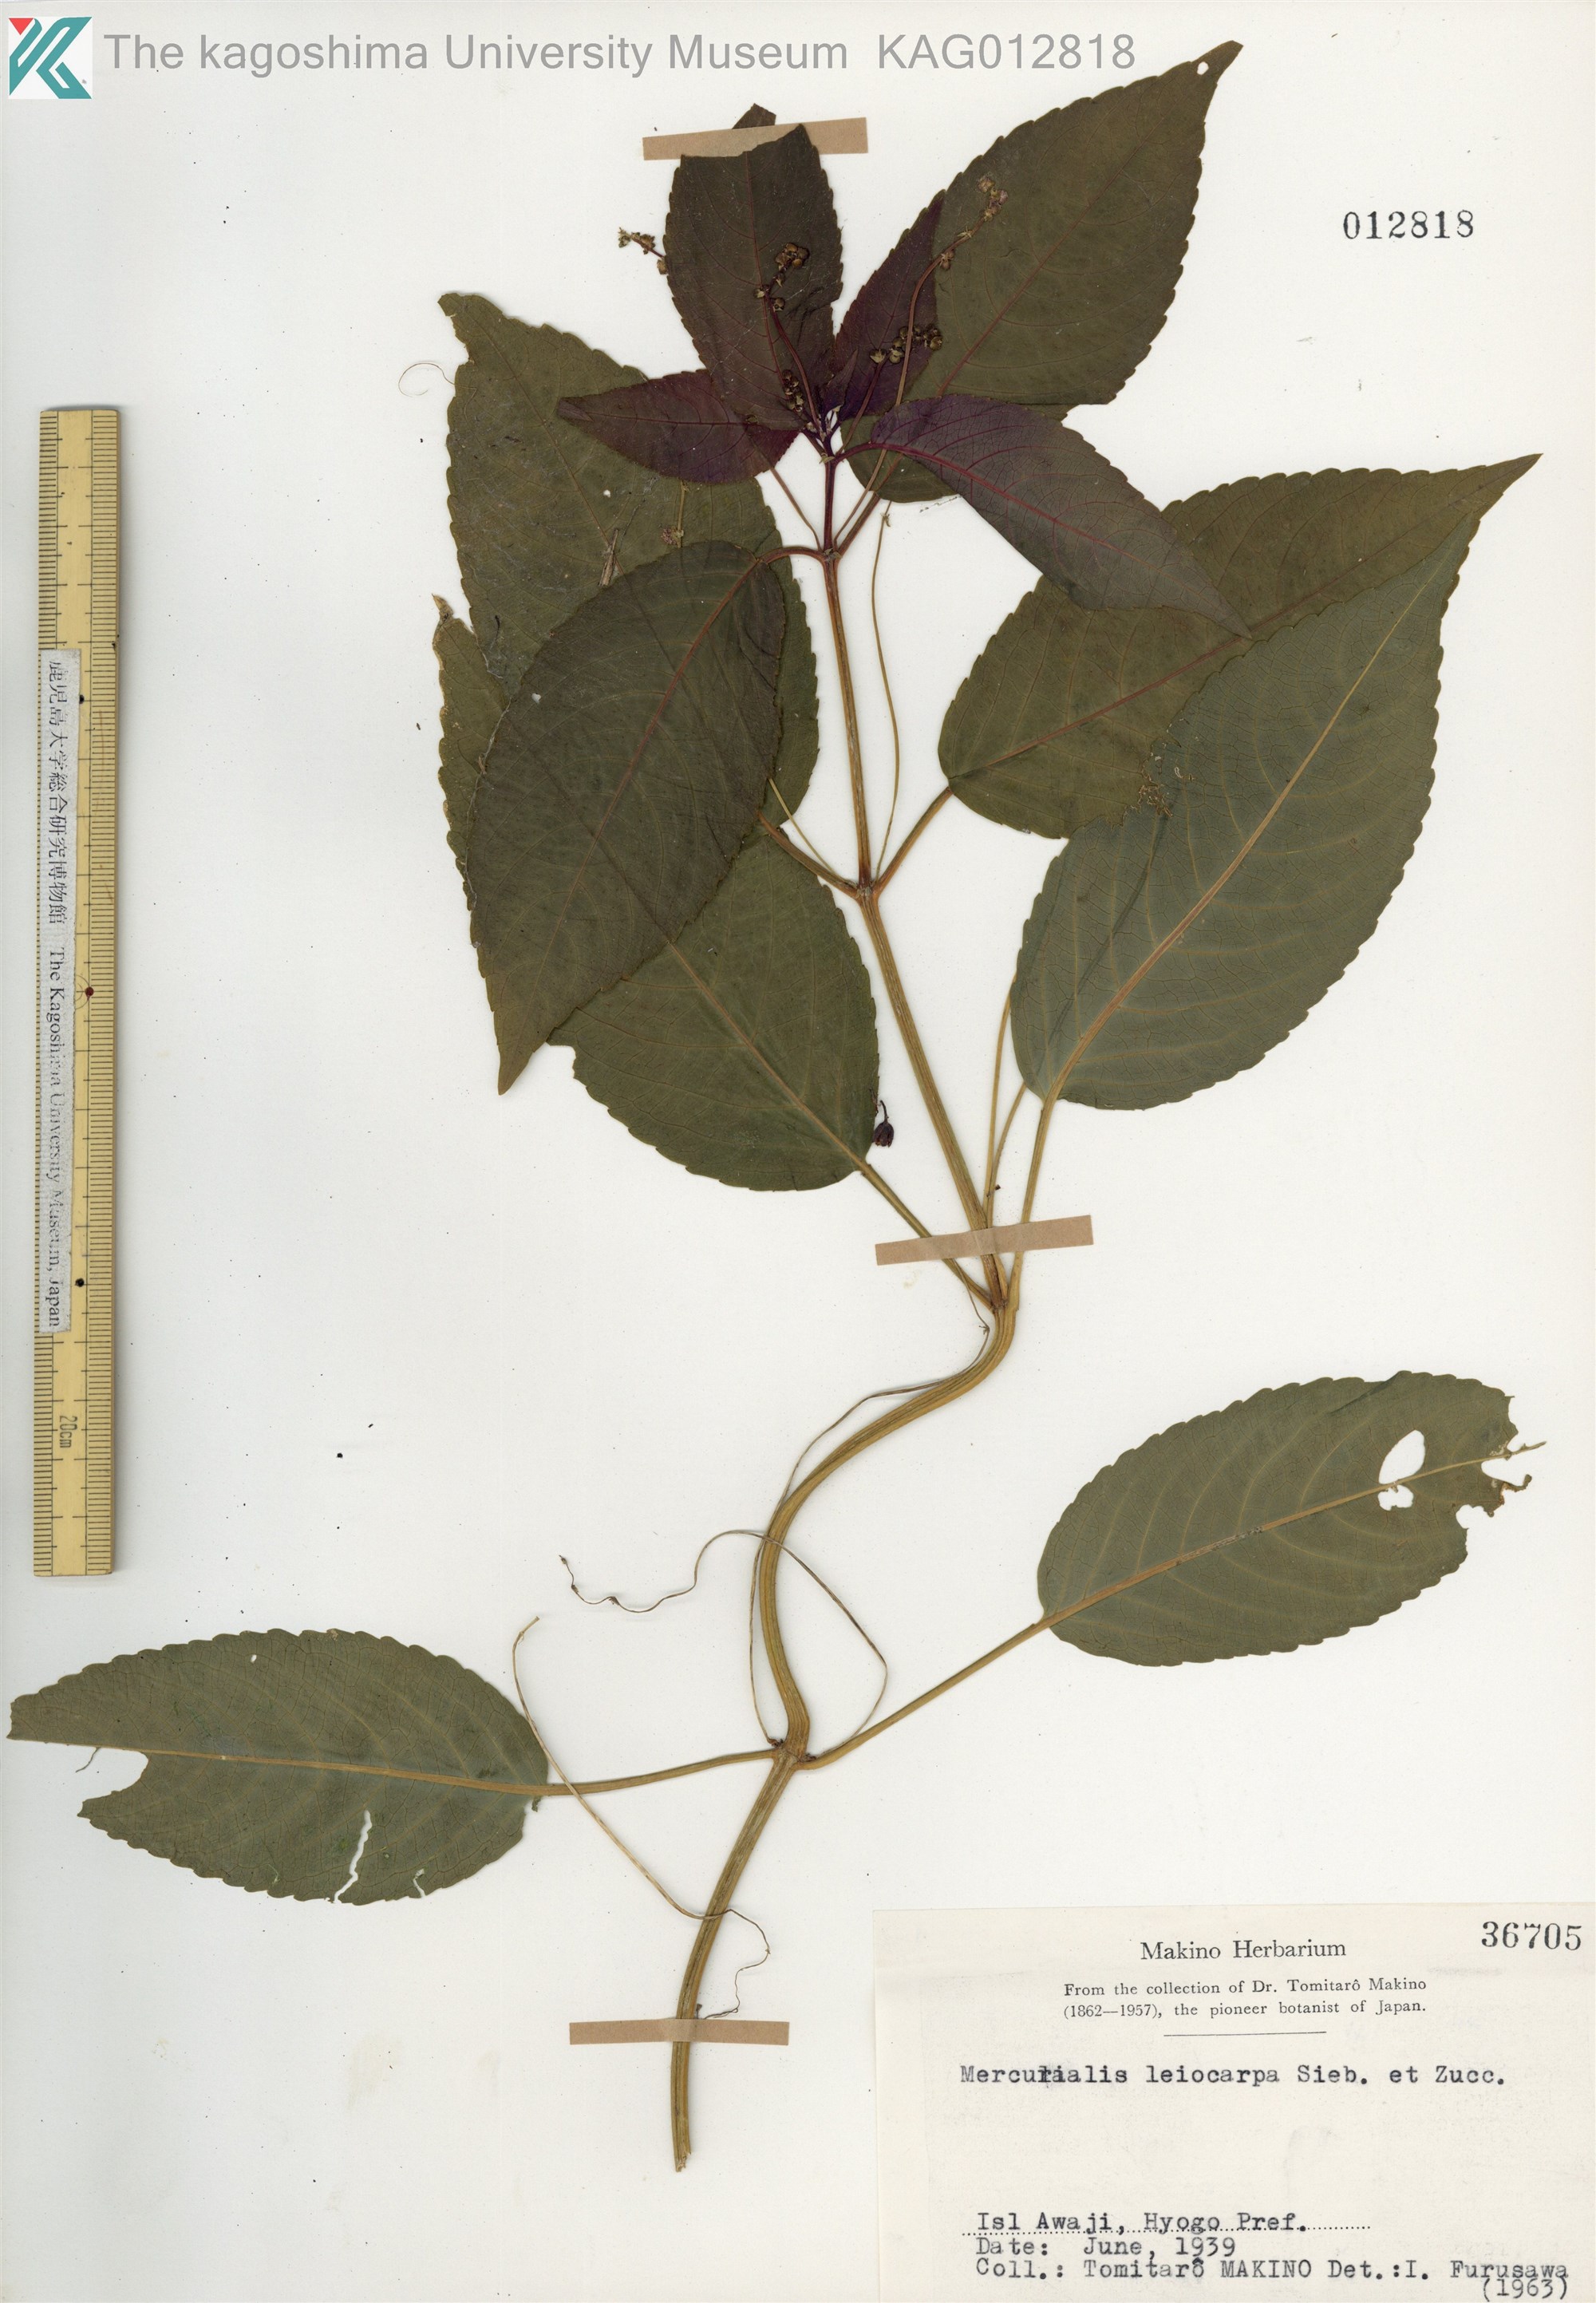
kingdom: Plantae
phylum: Tracheophyta
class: Magnoliopsida
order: Malpighiales
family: Euphorbiaceae
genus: Mercurialis
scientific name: Mercurialis leiocarpa
